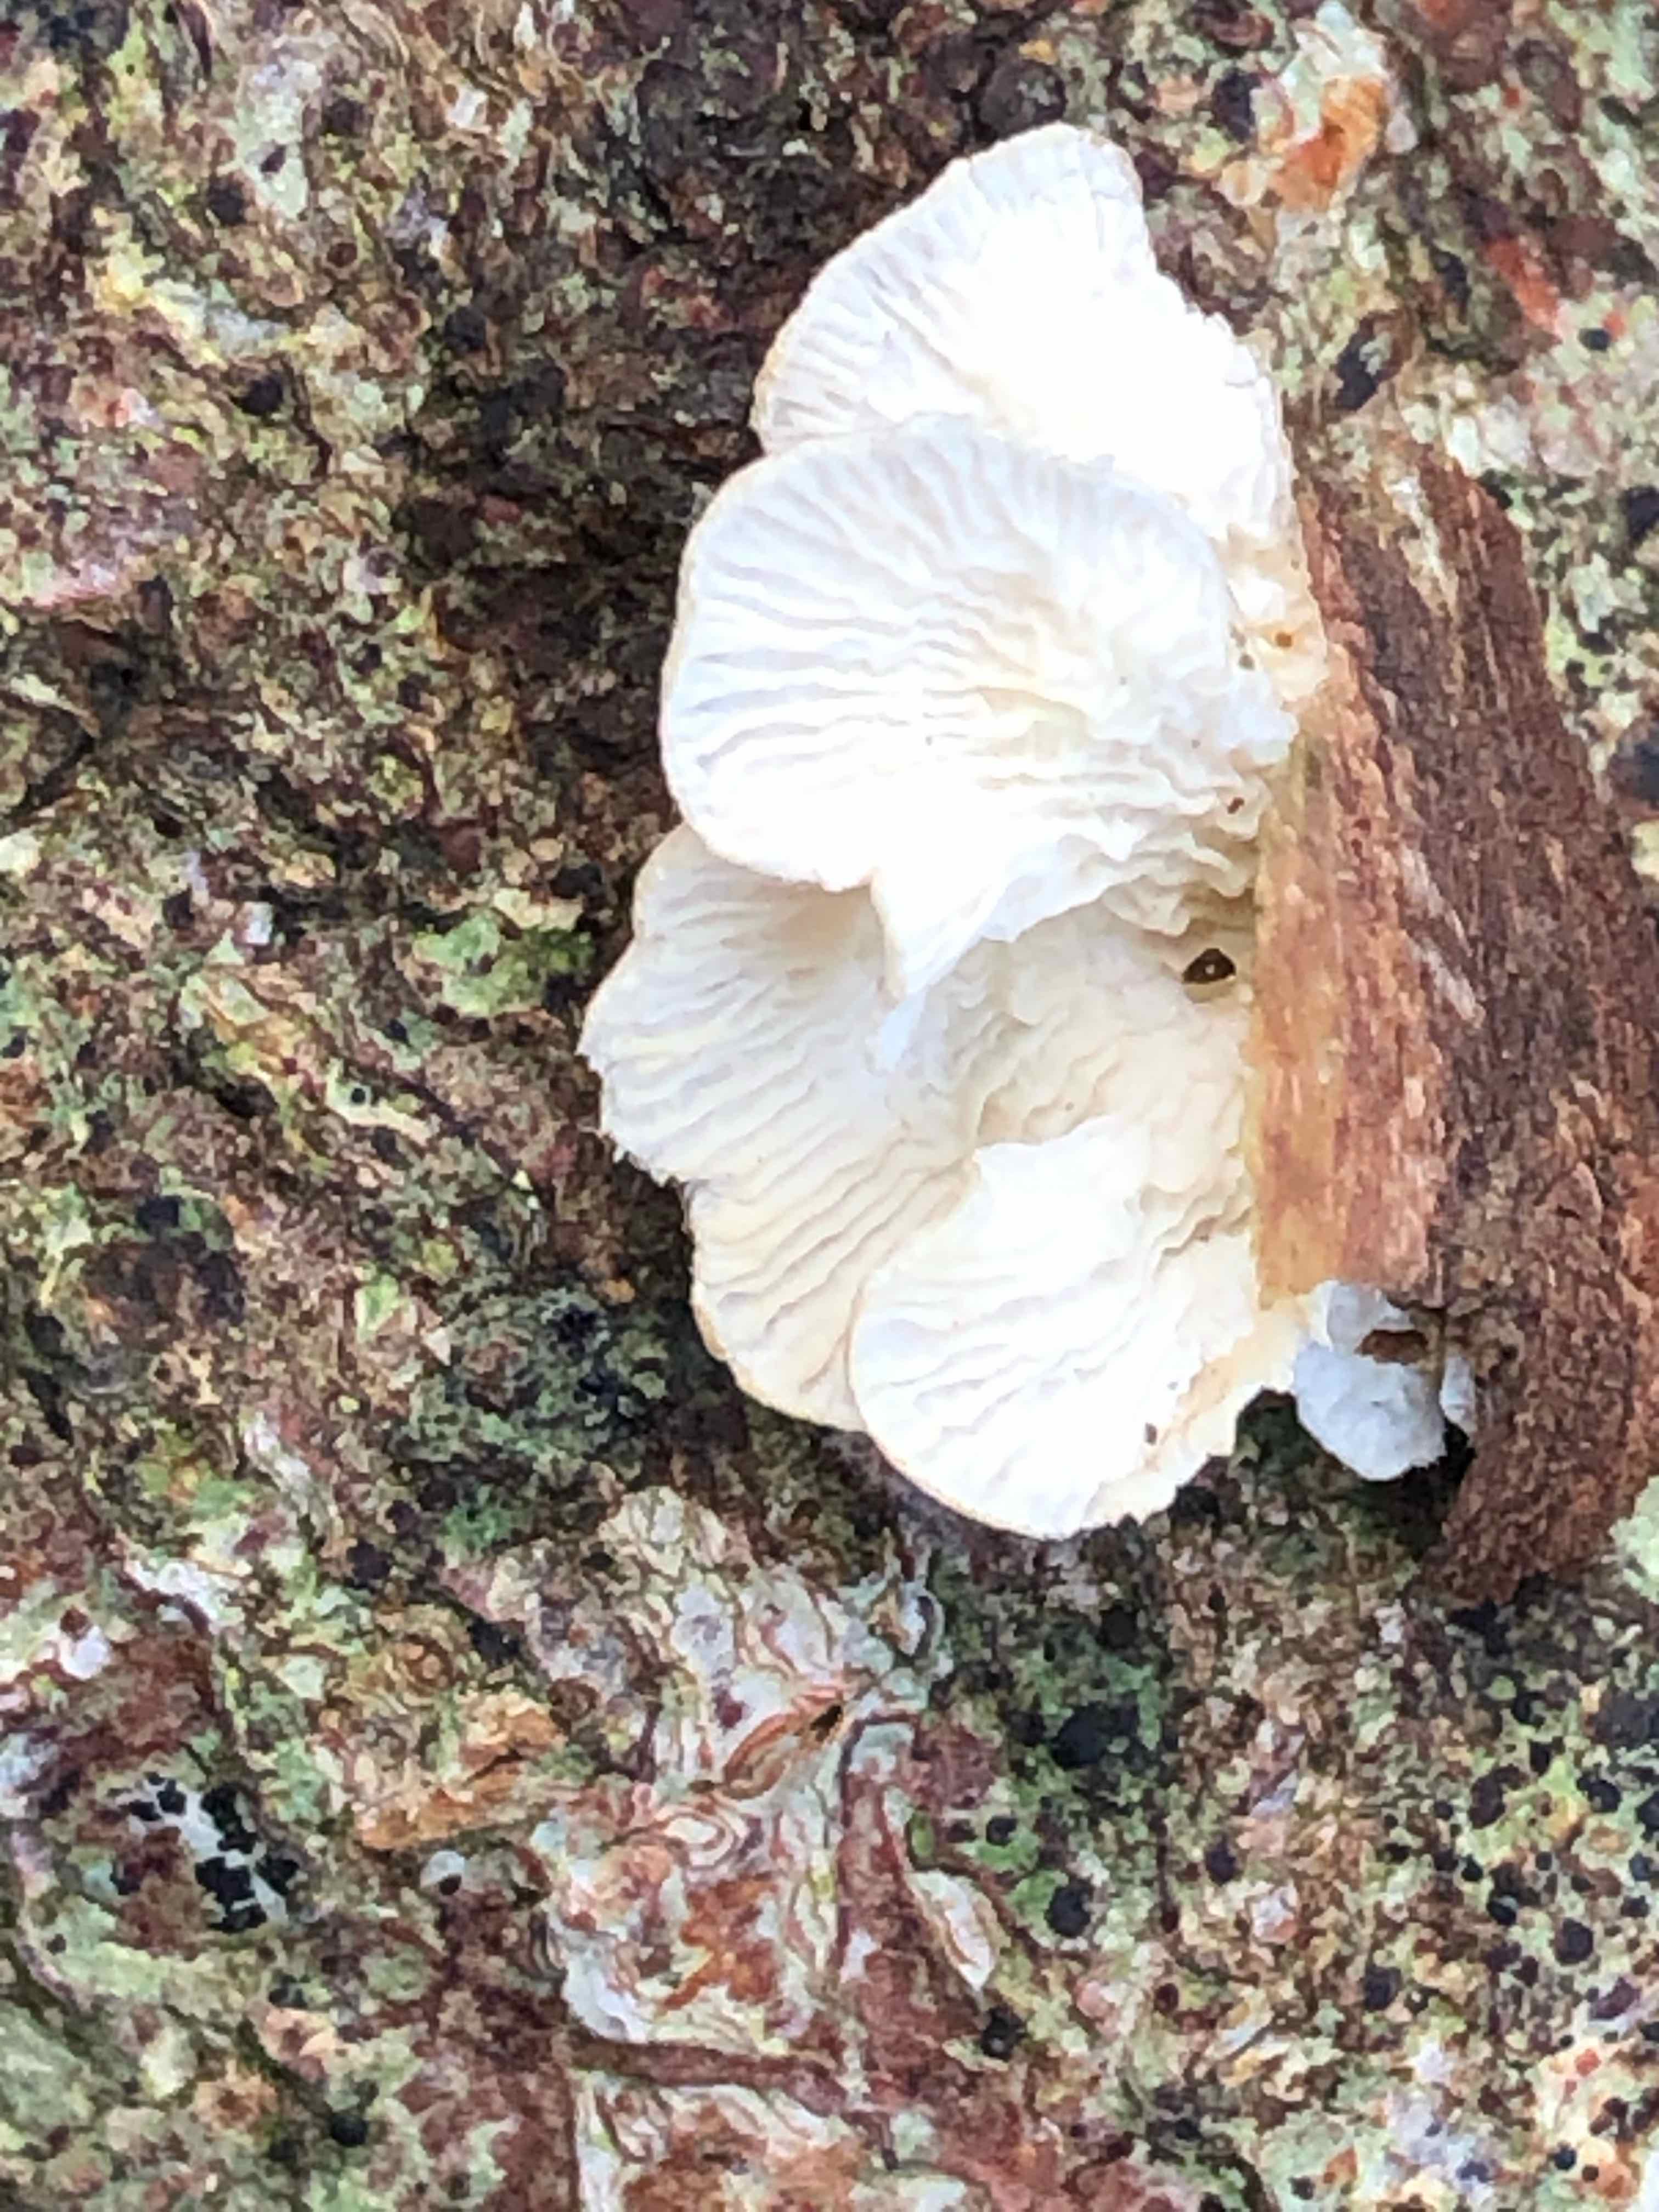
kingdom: Fungi
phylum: Basidiomycota
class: Agaricomycetes
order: Amylocorticiales
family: Amylocorticiaceae
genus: Plicaturopsis
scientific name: Plicaturopsis crispa
